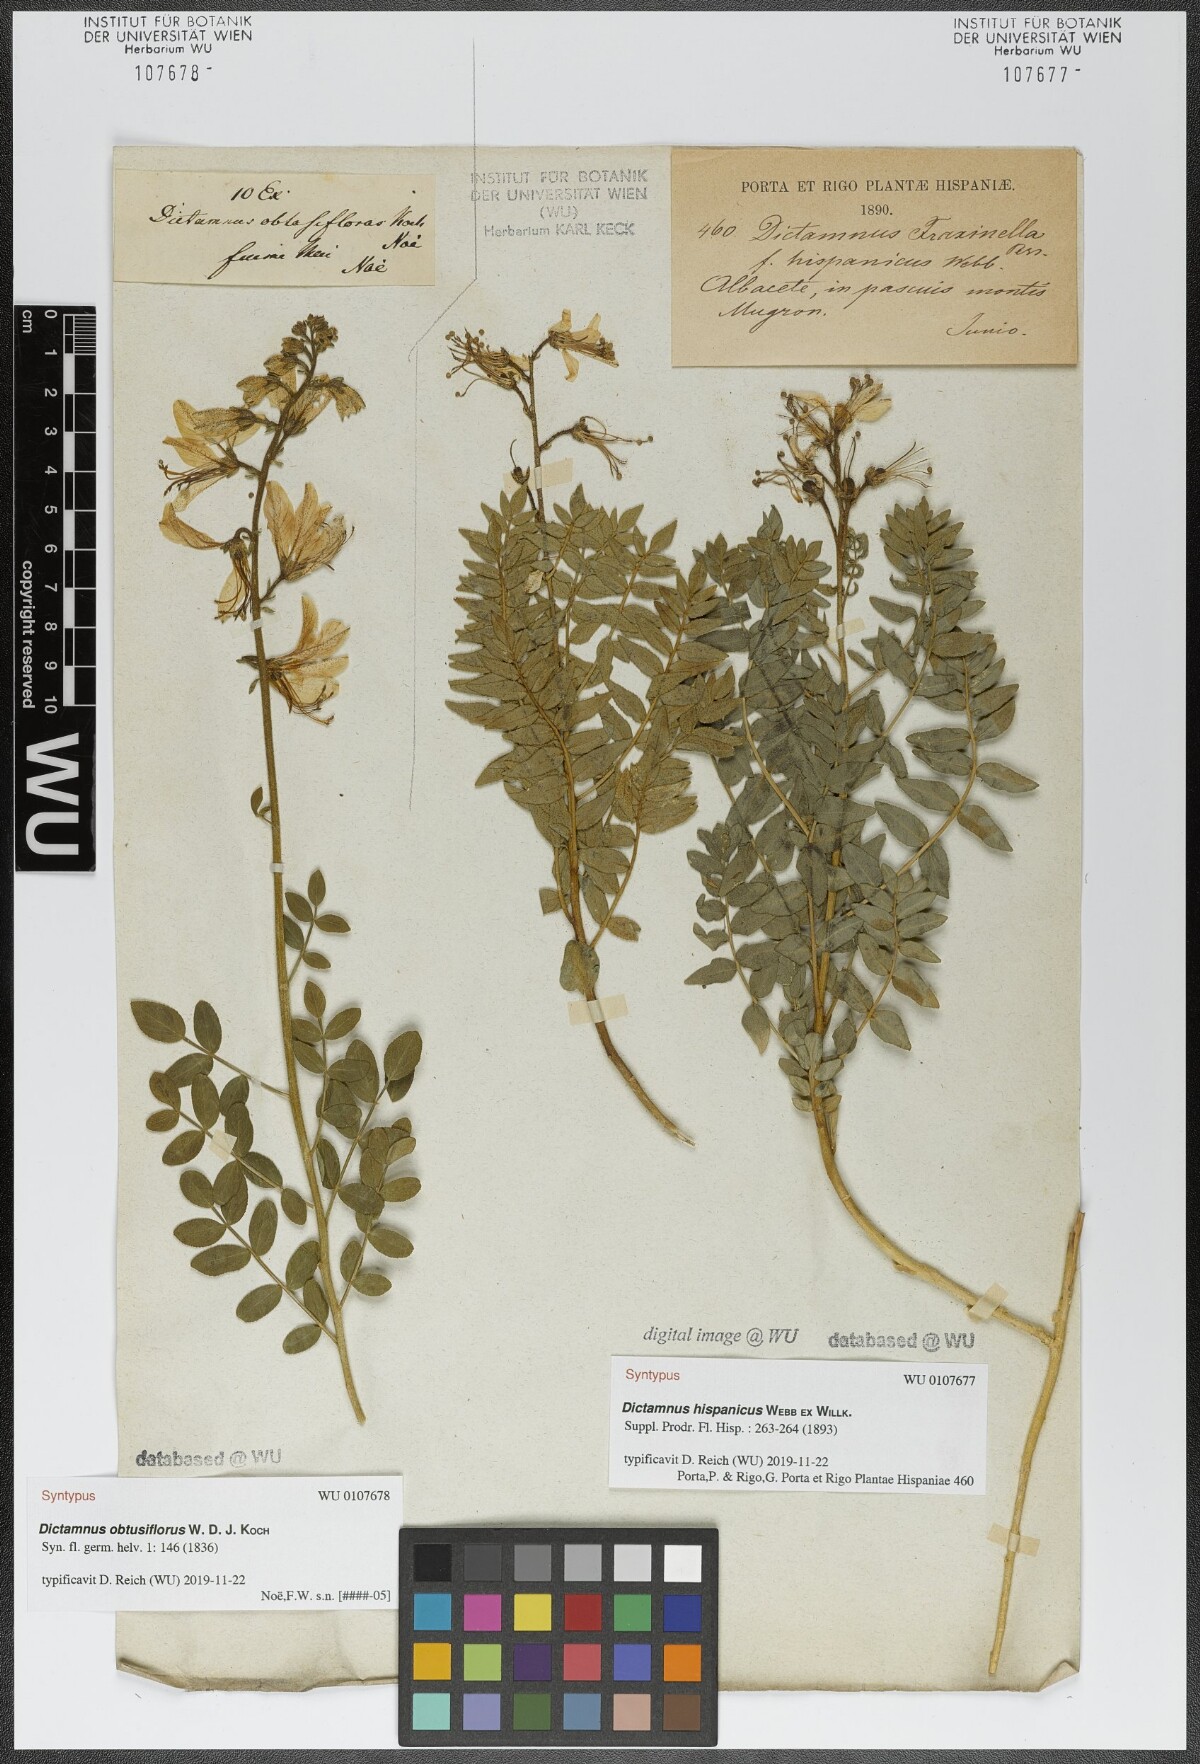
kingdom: Plantae
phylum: Tracheophyta
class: Magnoliopsida
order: Sapindales
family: Rutaceae
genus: Dictamnus
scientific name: Dictamnus albus
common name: Gasplant
